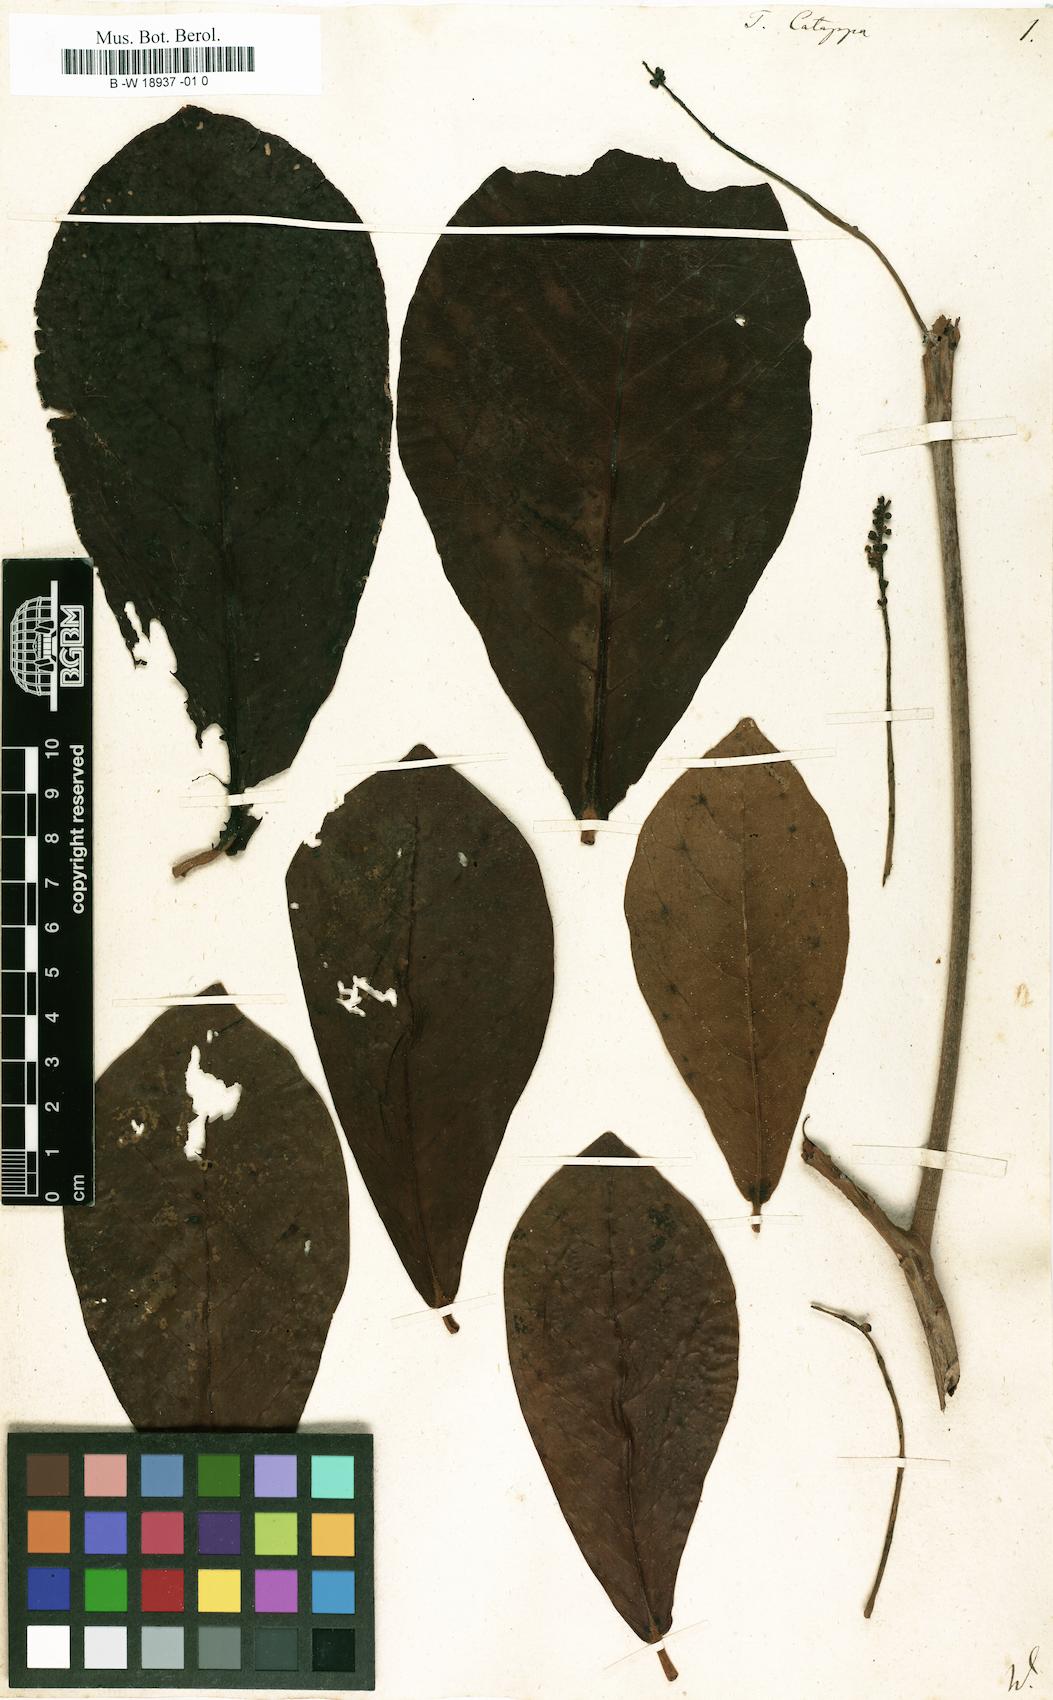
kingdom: Plantae
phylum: Tracheophyta
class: Magnoliopsida
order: Myrtales
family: Combretaceae
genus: Terminalia
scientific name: Terminalia catappa
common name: Tropical almond
